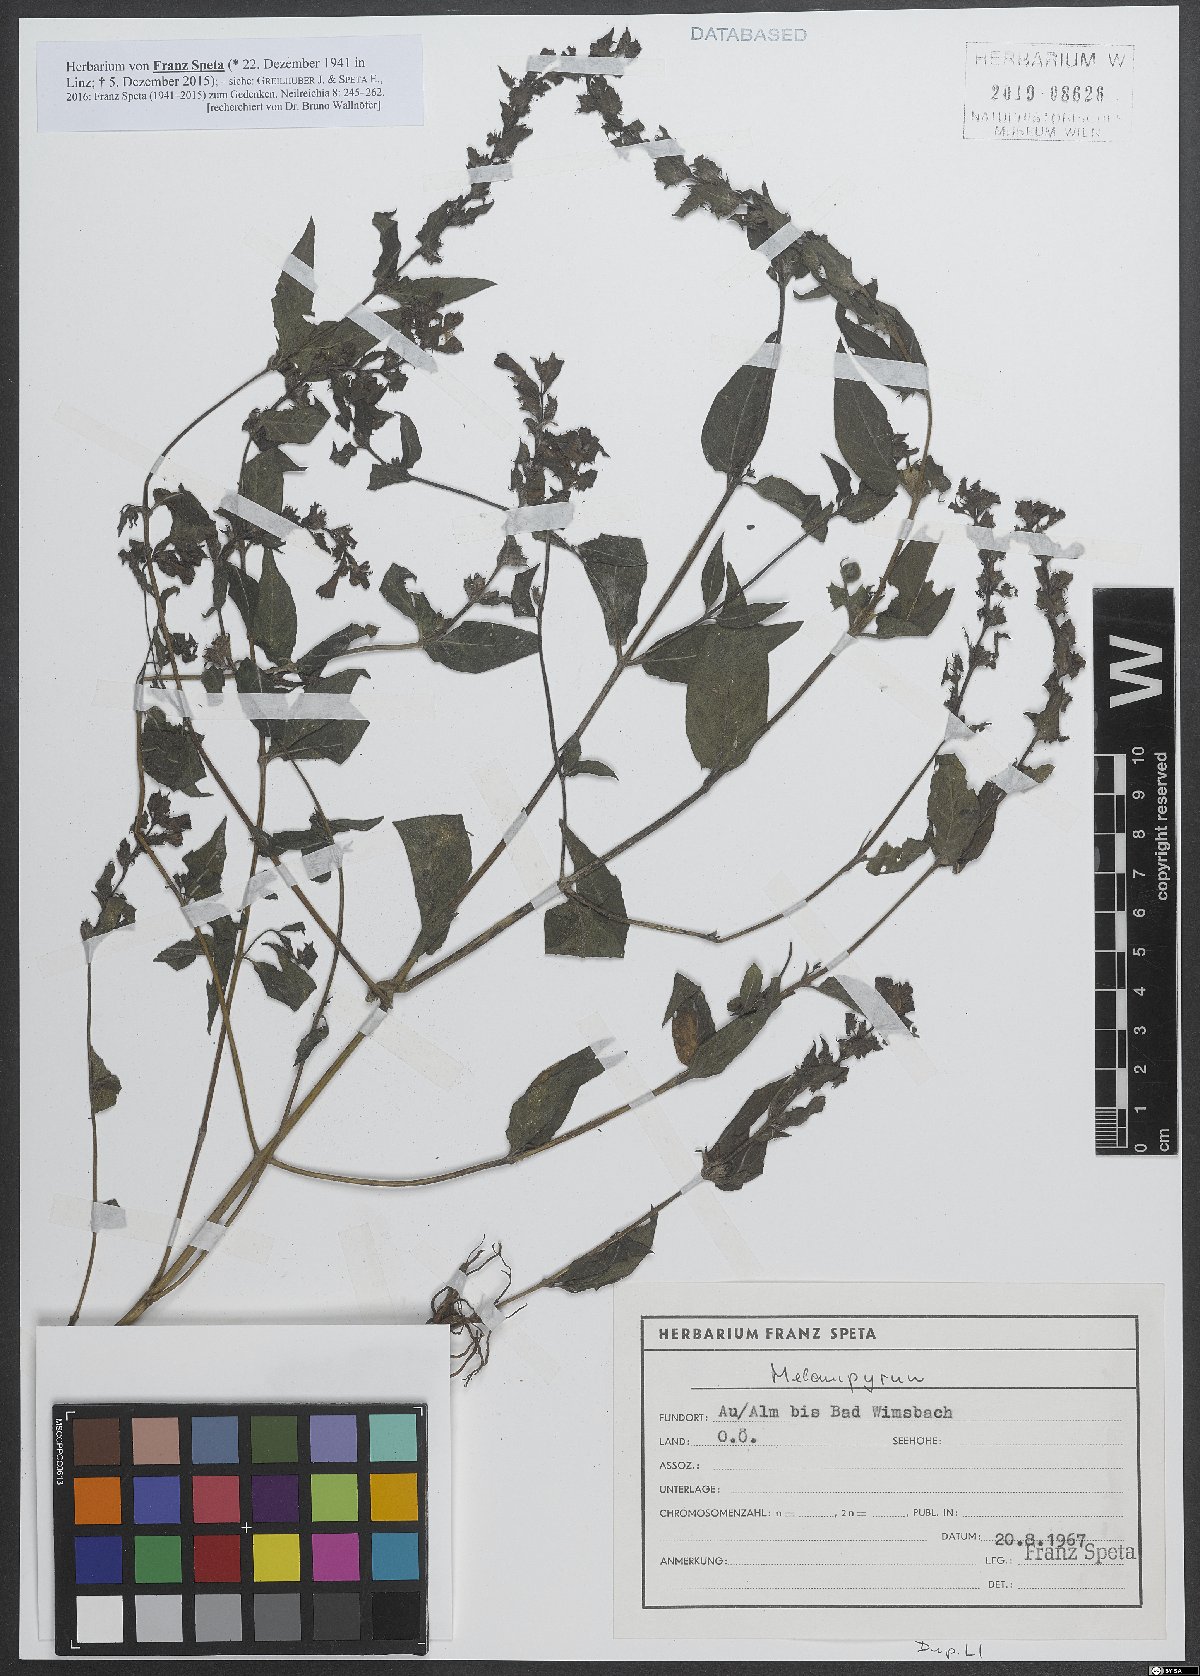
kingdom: Plantae
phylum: Tracheophyta
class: Magnoliopsida
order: Lamiales
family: Orobanchaceae
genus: Melampyrum
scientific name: Melampyrum
